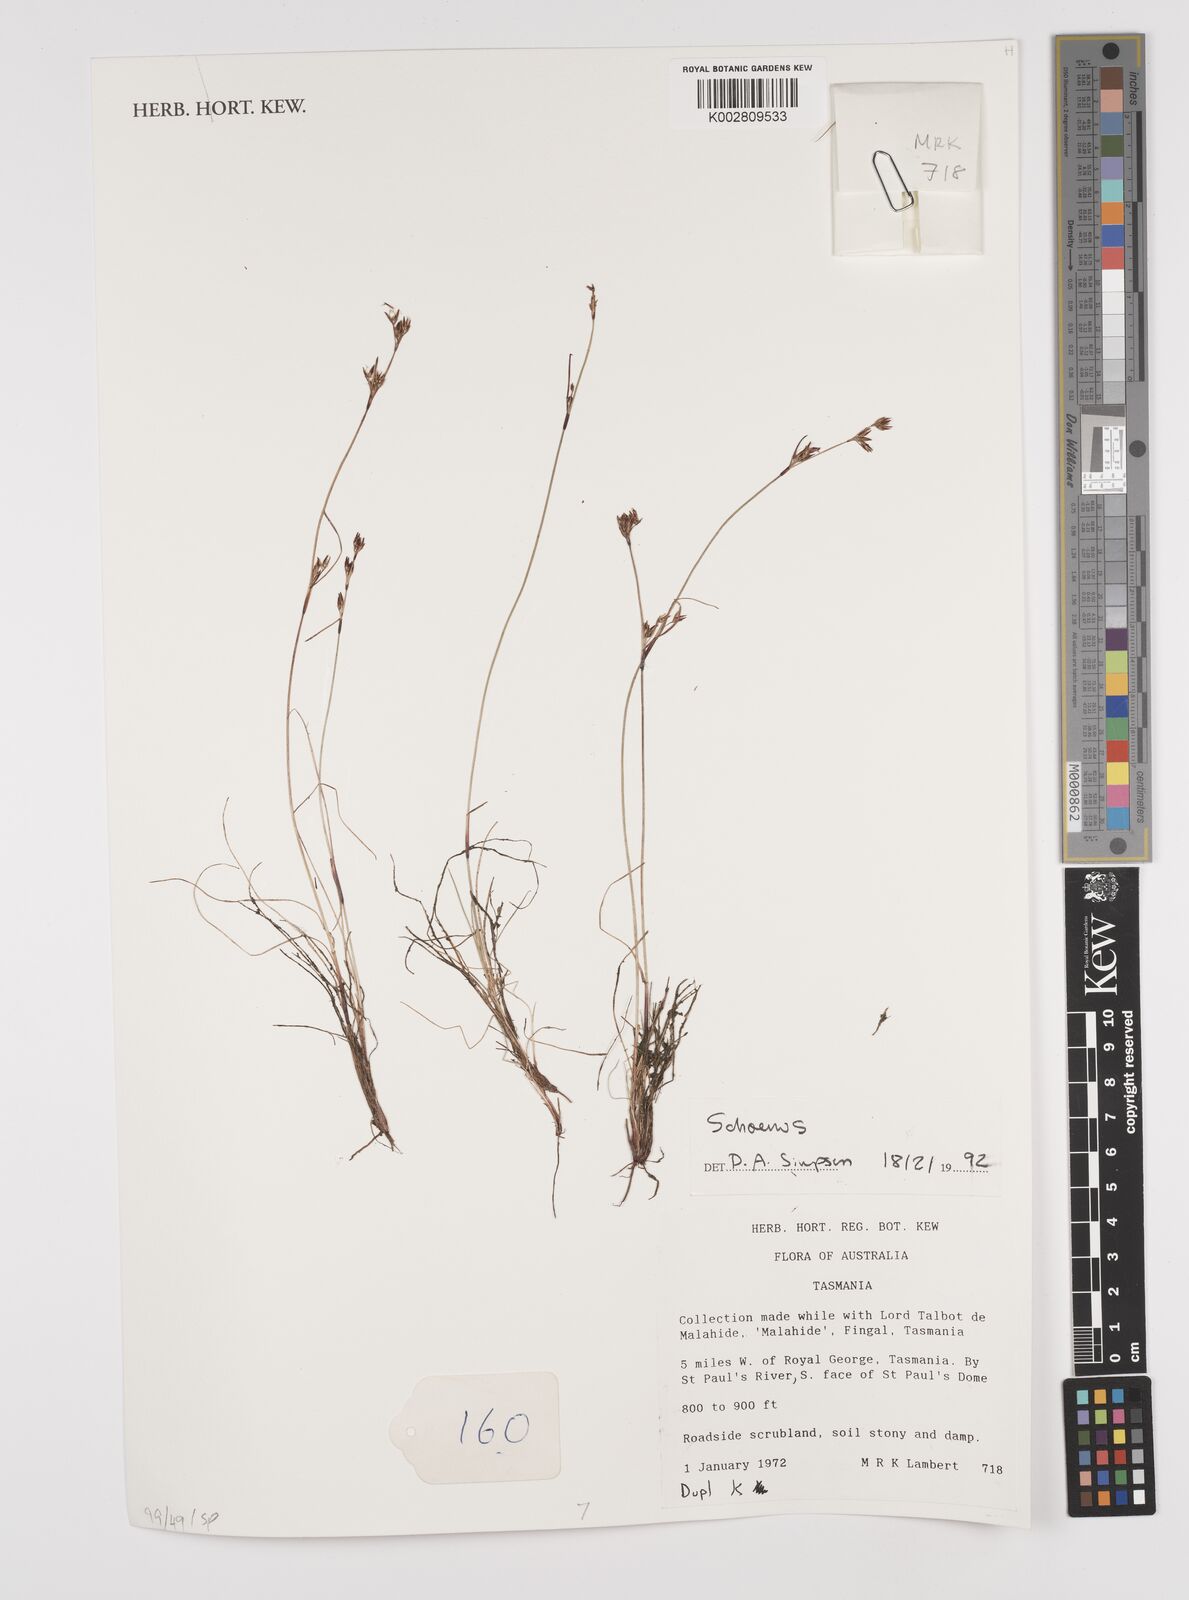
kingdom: Plantae
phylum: Tracheophyta
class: Liliopsida
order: Poales
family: Cyperaceae
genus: Schoenus
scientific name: Schoenus
